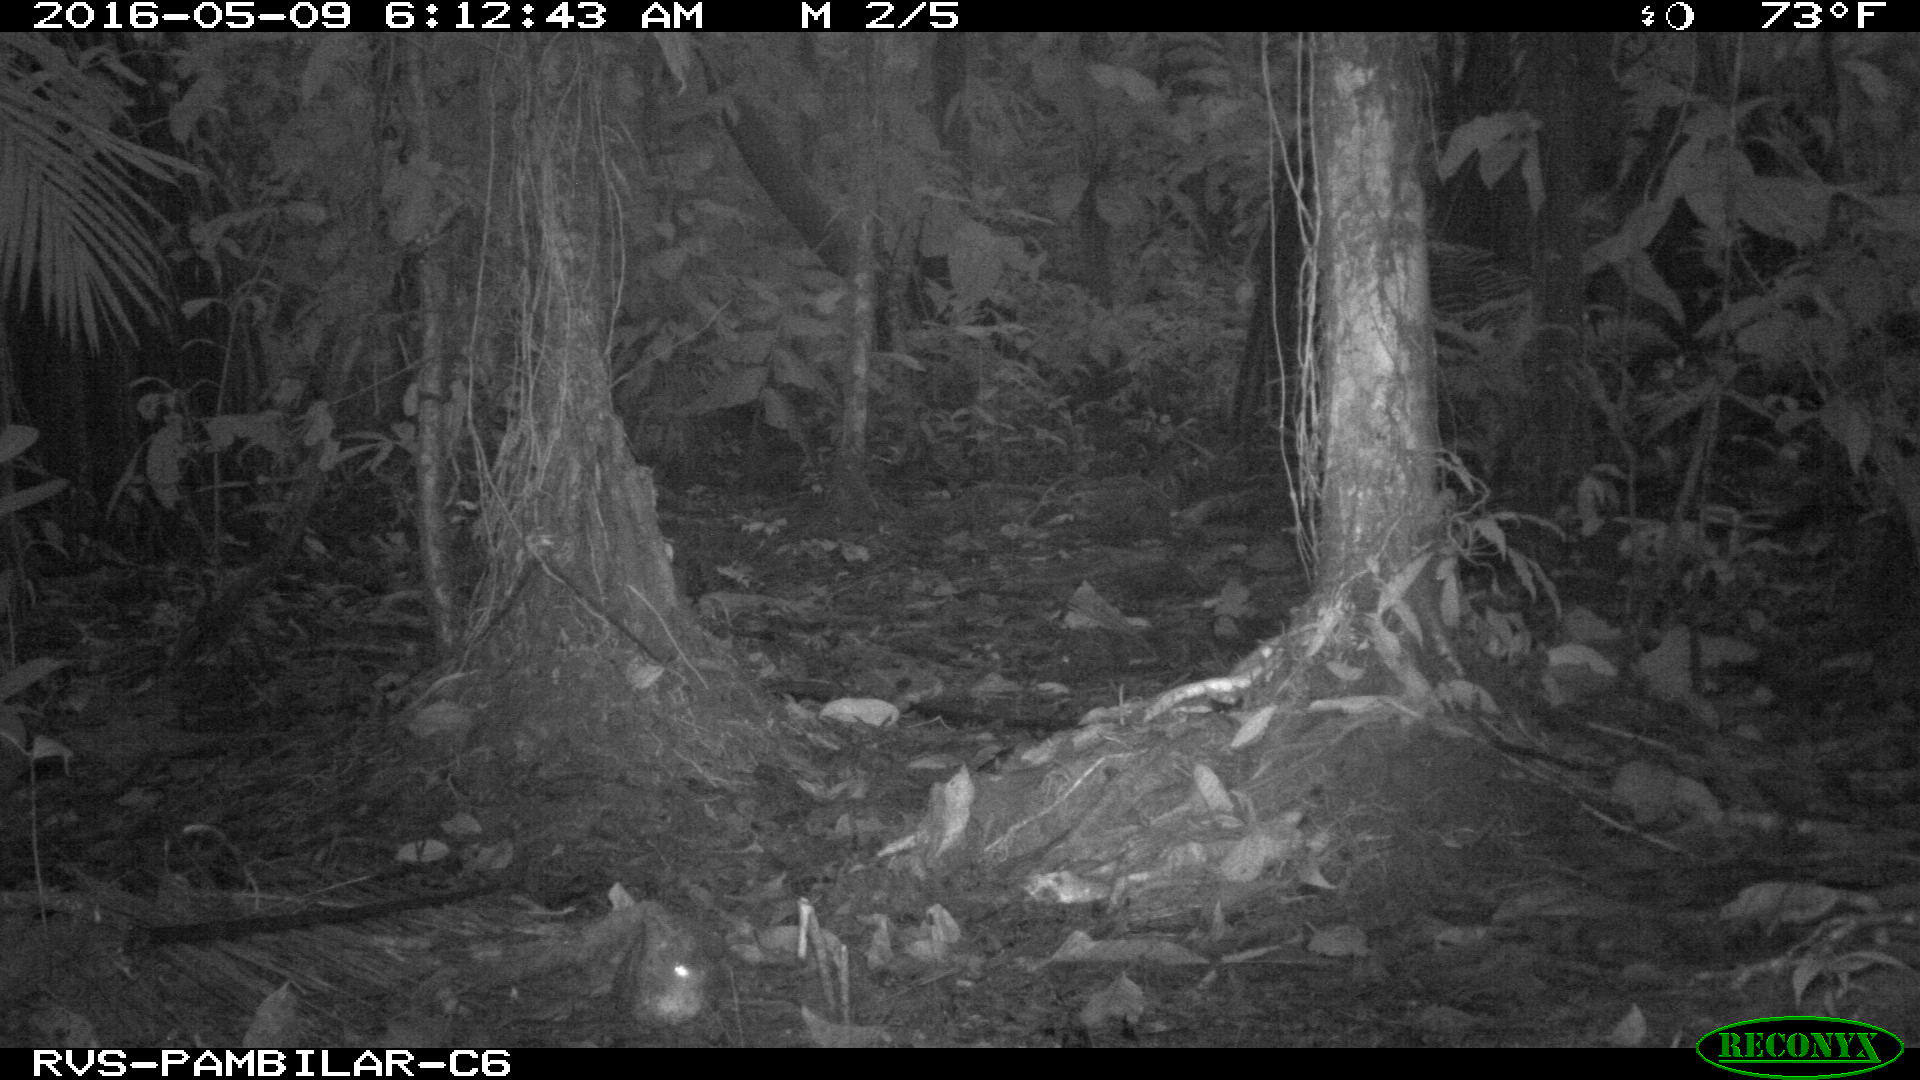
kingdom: Animalia
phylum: Chordata
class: Mammalia
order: Rodentia
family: Dasyproctidae
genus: Dasyprocta
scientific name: Dasyprocta punctata
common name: Central american agouti
